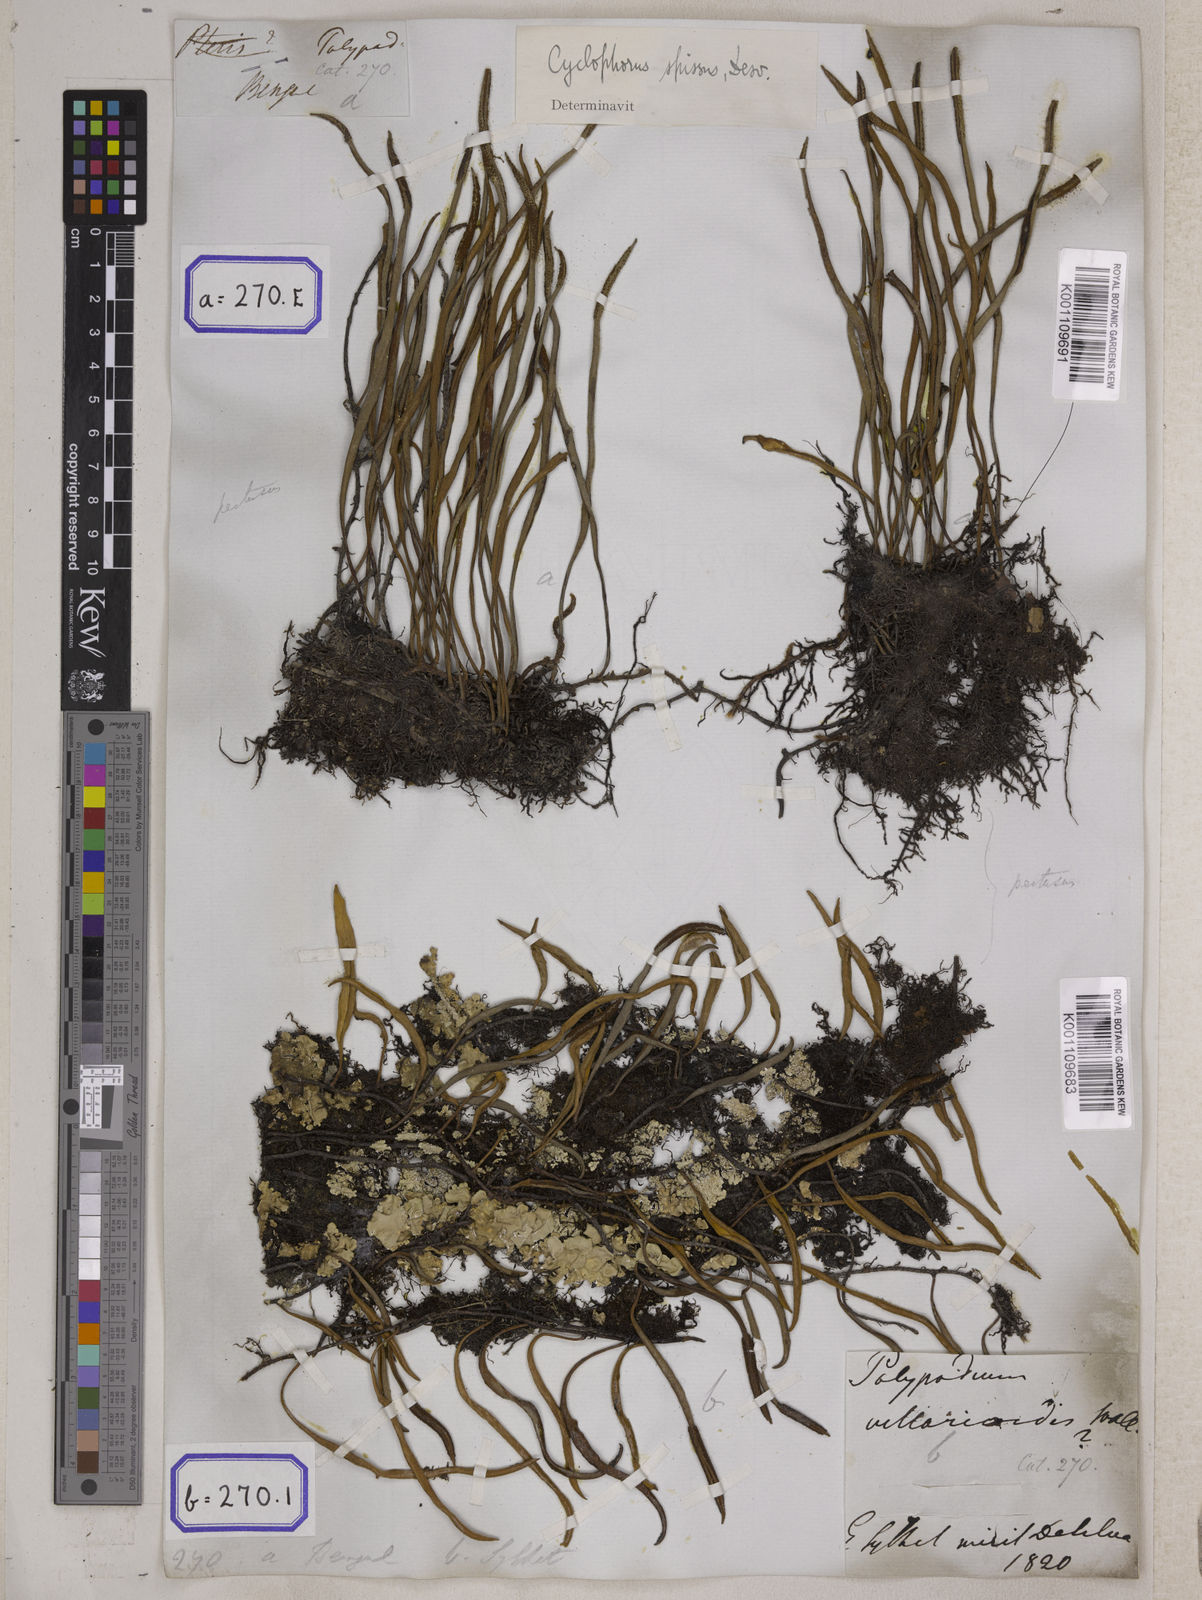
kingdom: Plantae
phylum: Tracheophyta
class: Polypodiopsida
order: Polypodiales
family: Polypodiaceae
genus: Pyrrosia
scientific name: Pyrrosia lanceolata
